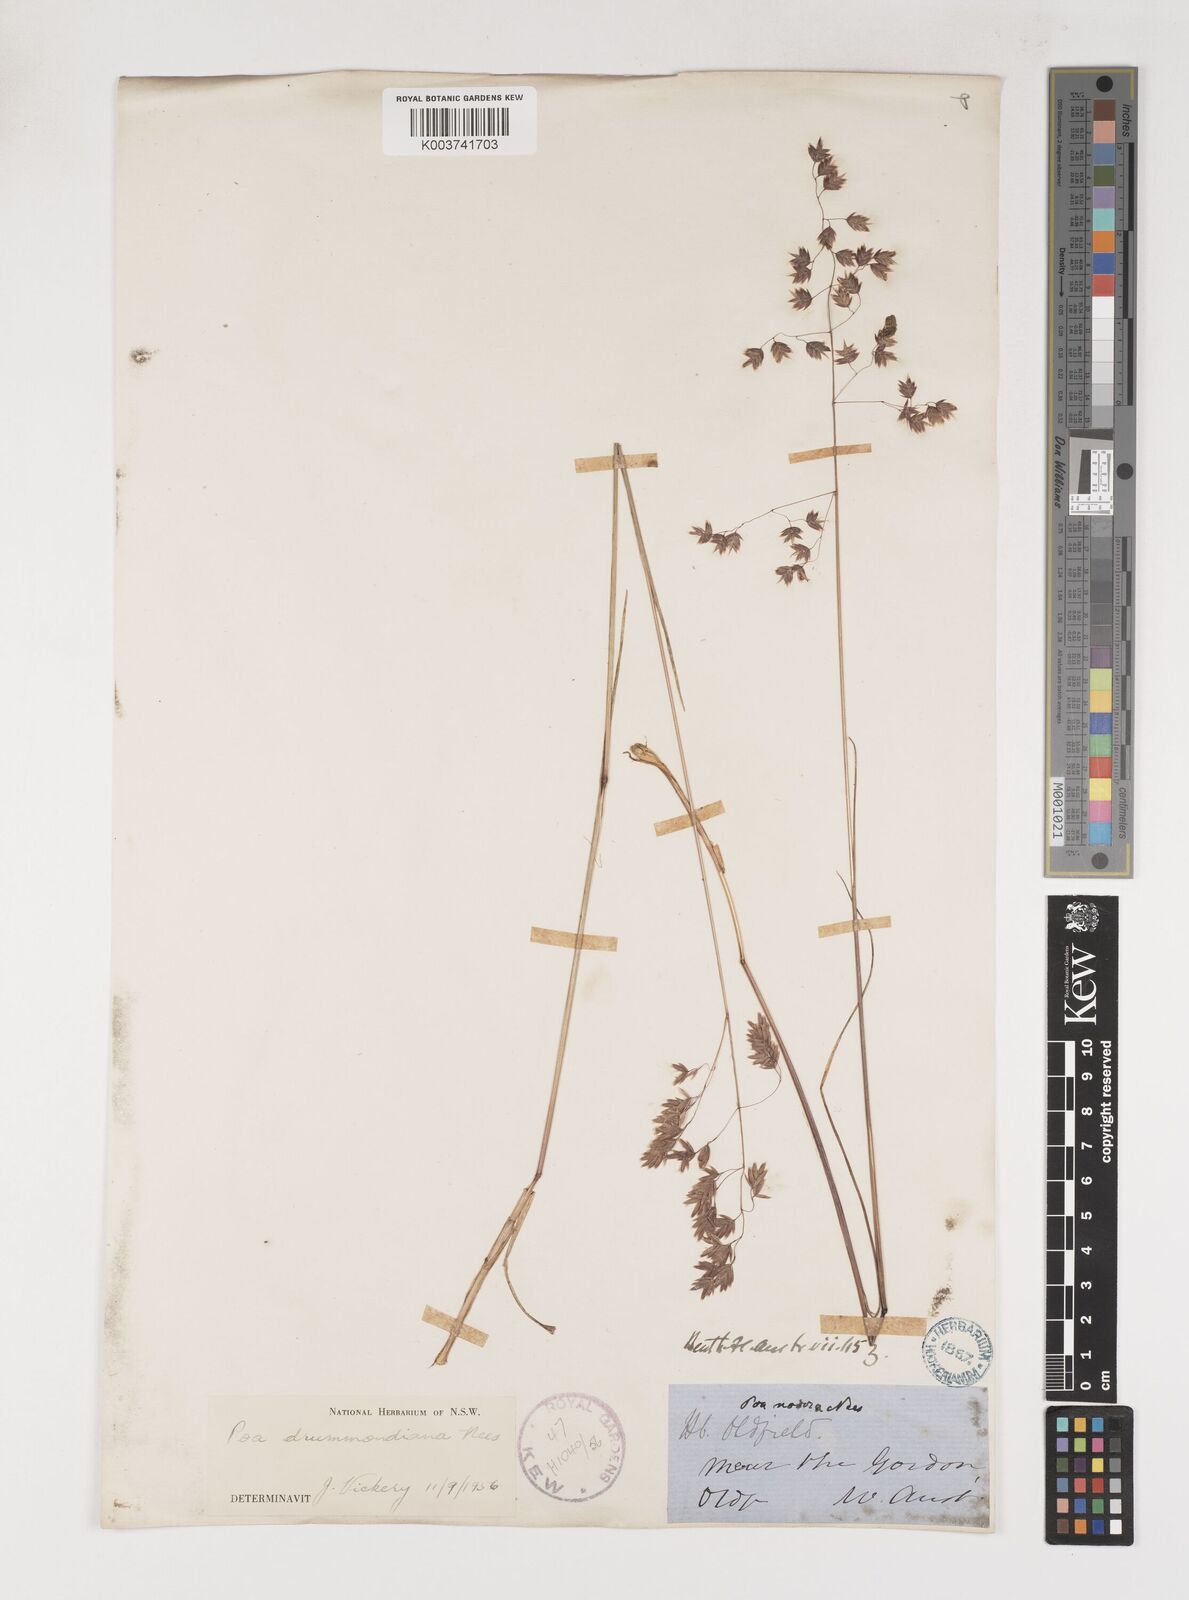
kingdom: Plantae
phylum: Tracheophyta
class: Liliopsida
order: Poales
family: Poaceae
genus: Poa
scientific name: Poa drummondiana
